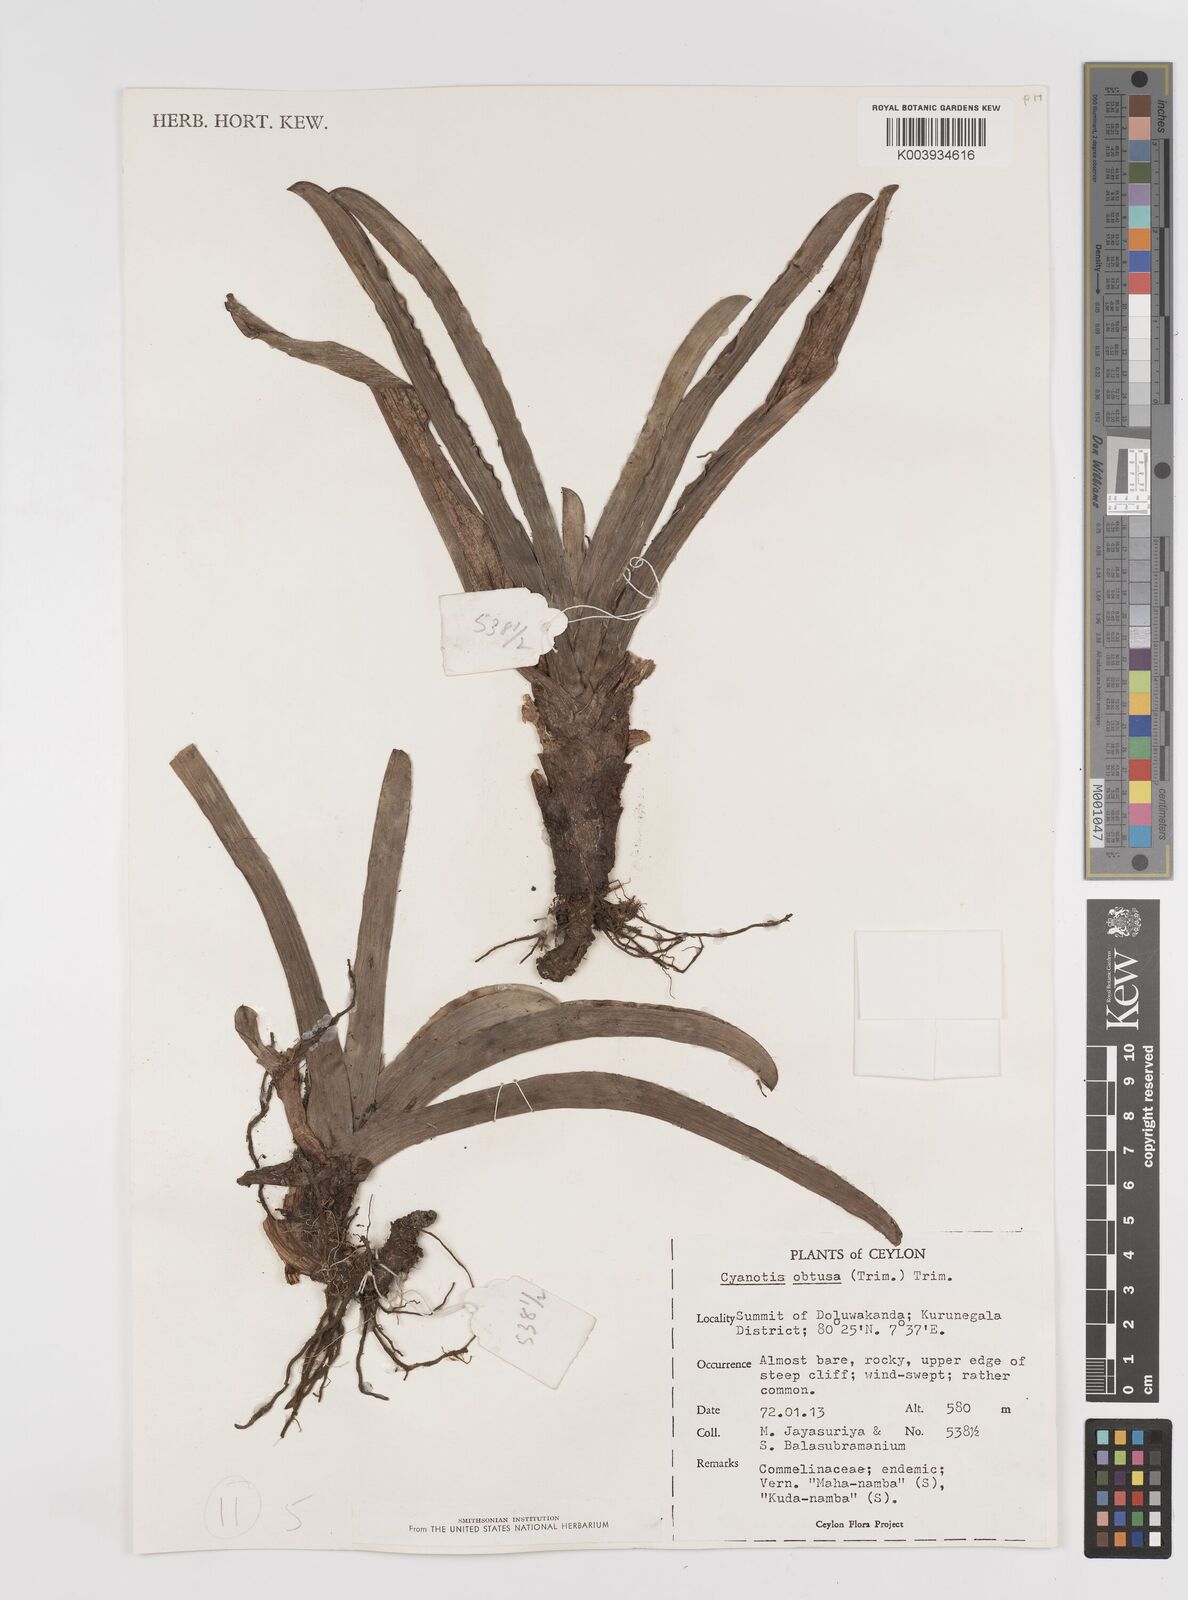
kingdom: Plantae
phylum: Tracheophyta
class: Liliopsida
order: Commelinales
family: Commelinaceae
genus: Cyanotis
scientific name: Cyanotis arachnoidea
